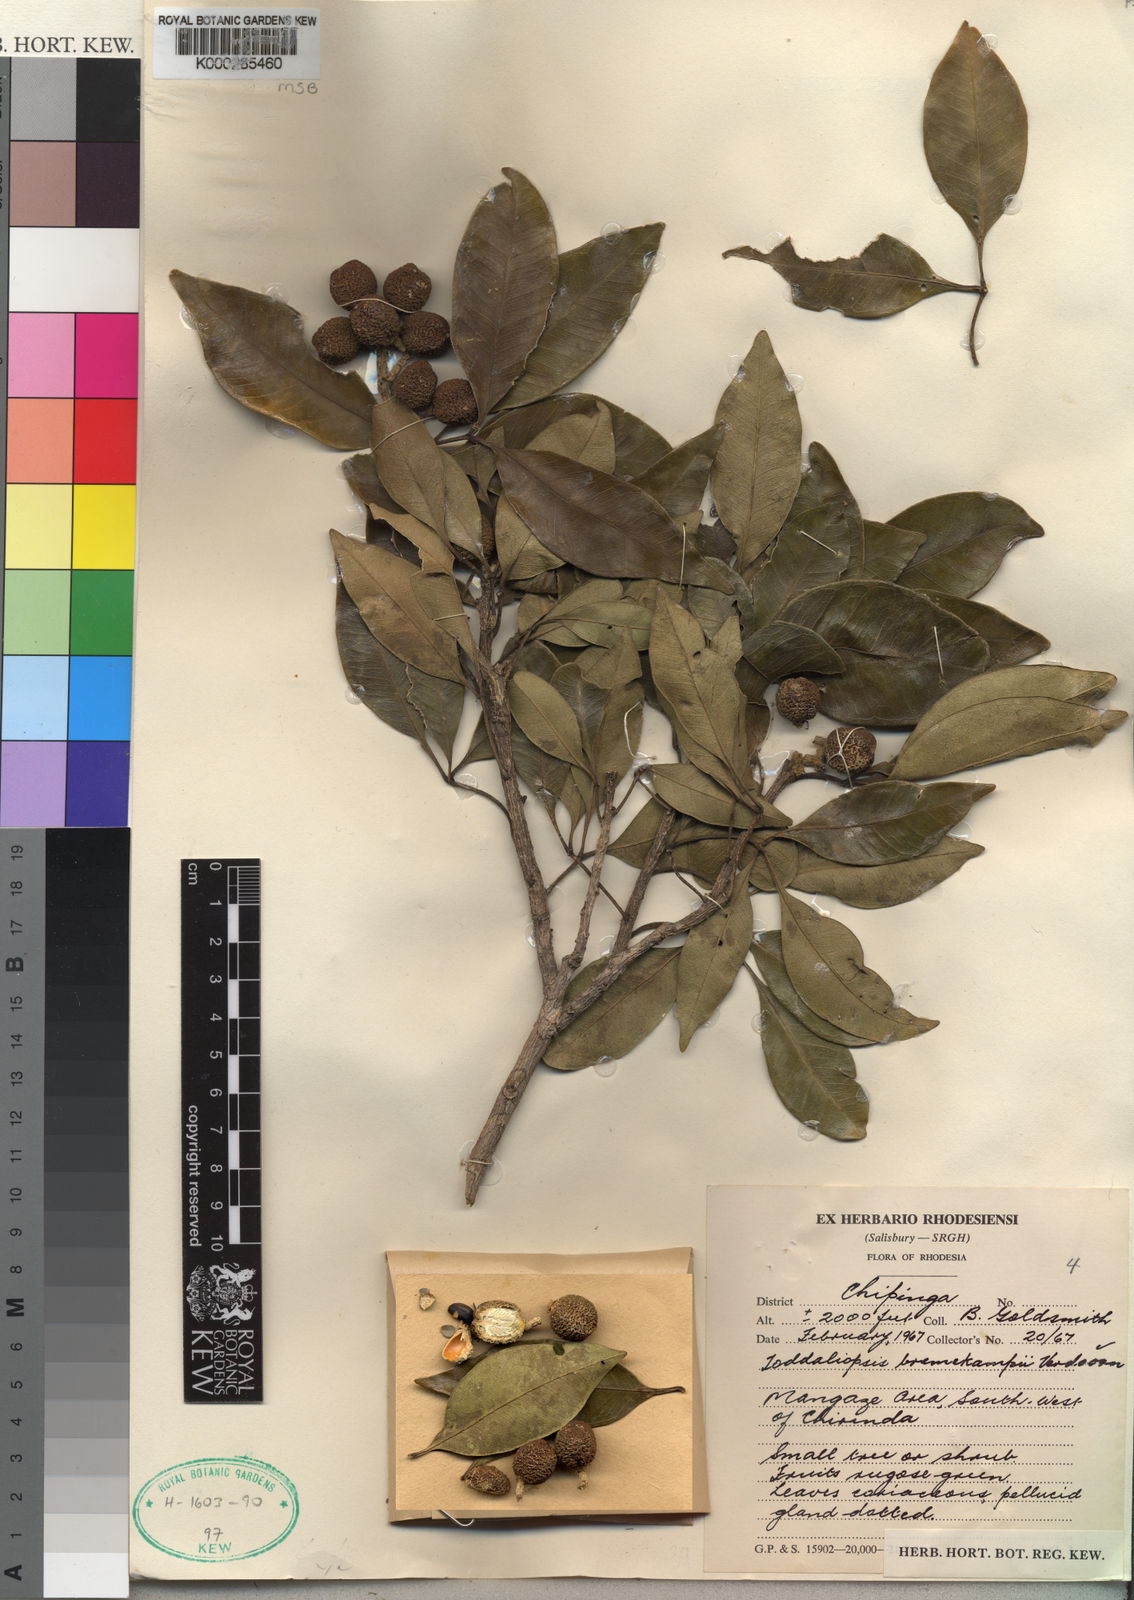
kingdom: Plantae
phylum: Tracheophyta
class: Magnoliopsida
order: Sapindales
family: Rutaceae
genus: Vepris
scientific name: Vepris bremekampii
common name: Wild mandarin
